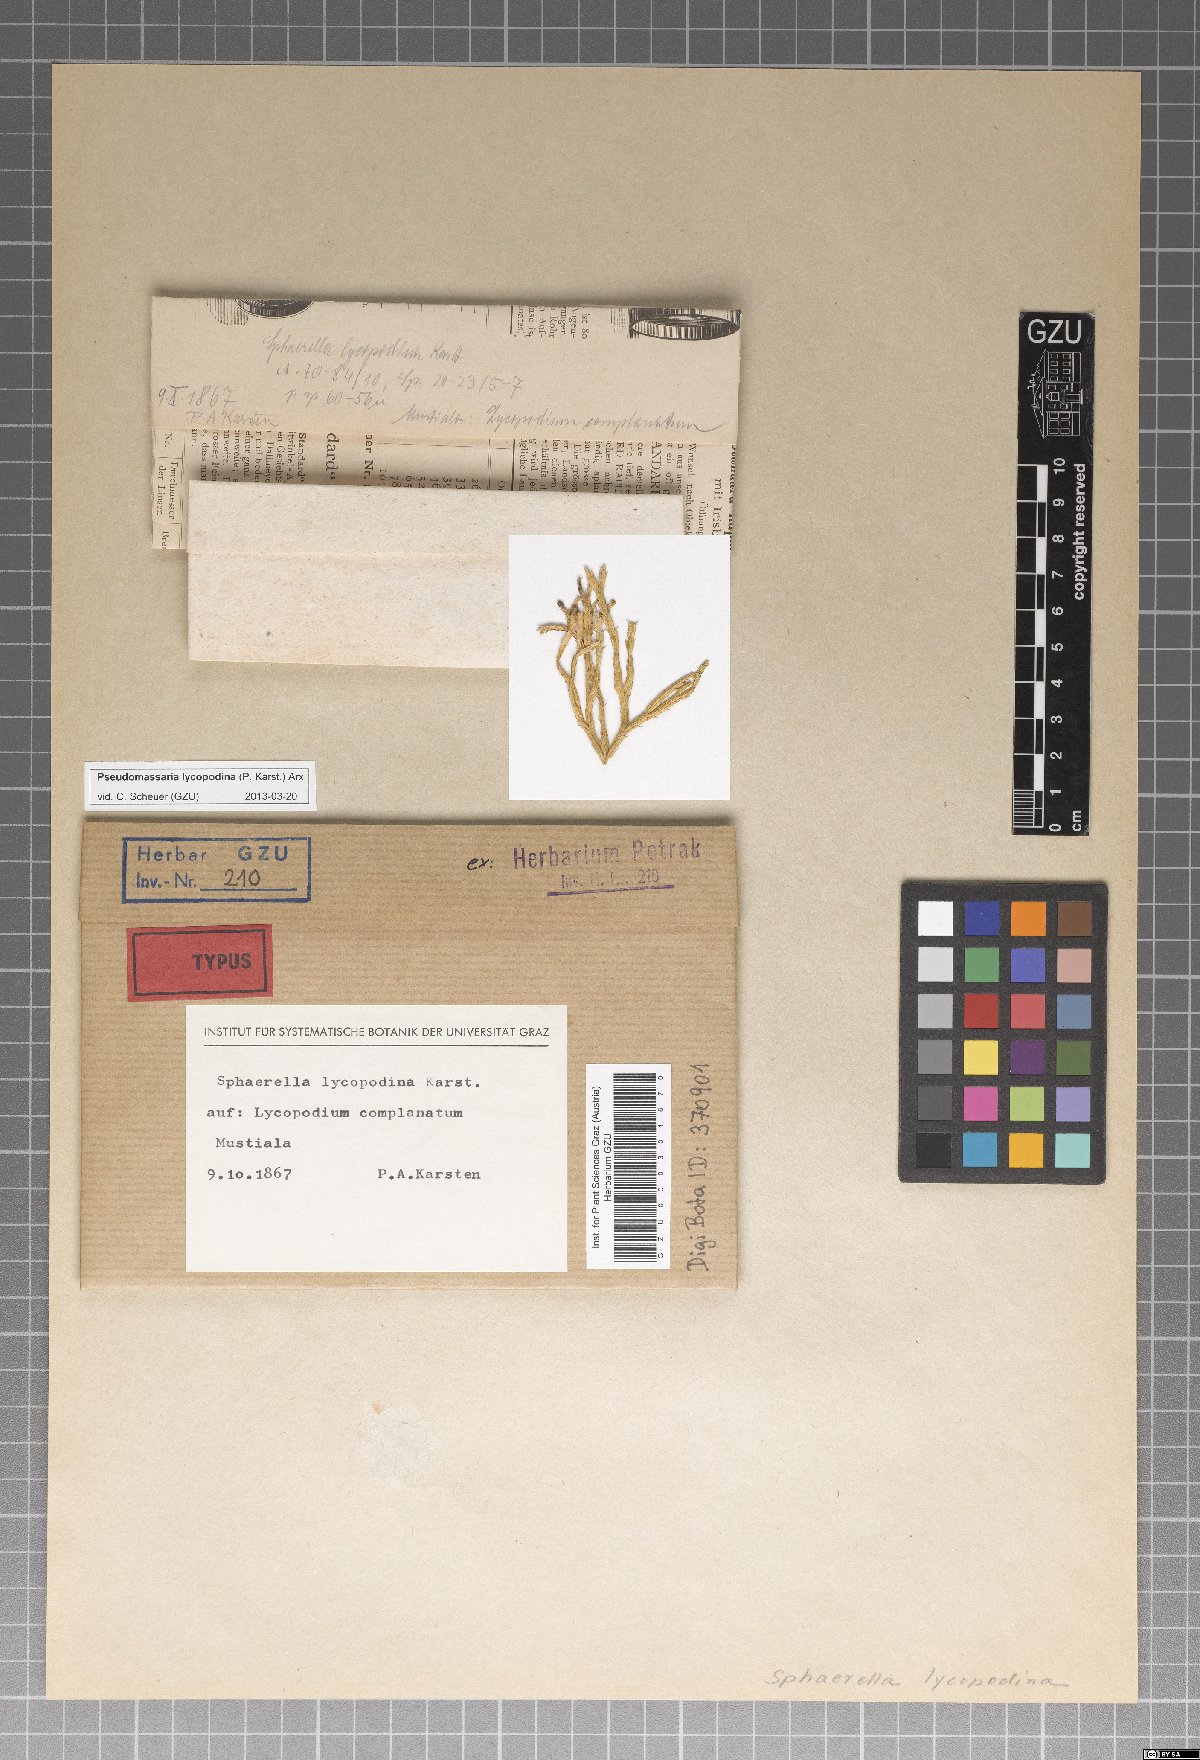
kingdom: Fungi
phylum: Ascomycota
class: Sordariomycetes
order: Xylariales
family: Pseudomassariaceae
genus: Leiosphaerella
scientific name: Leiosphaerella lycopodina
